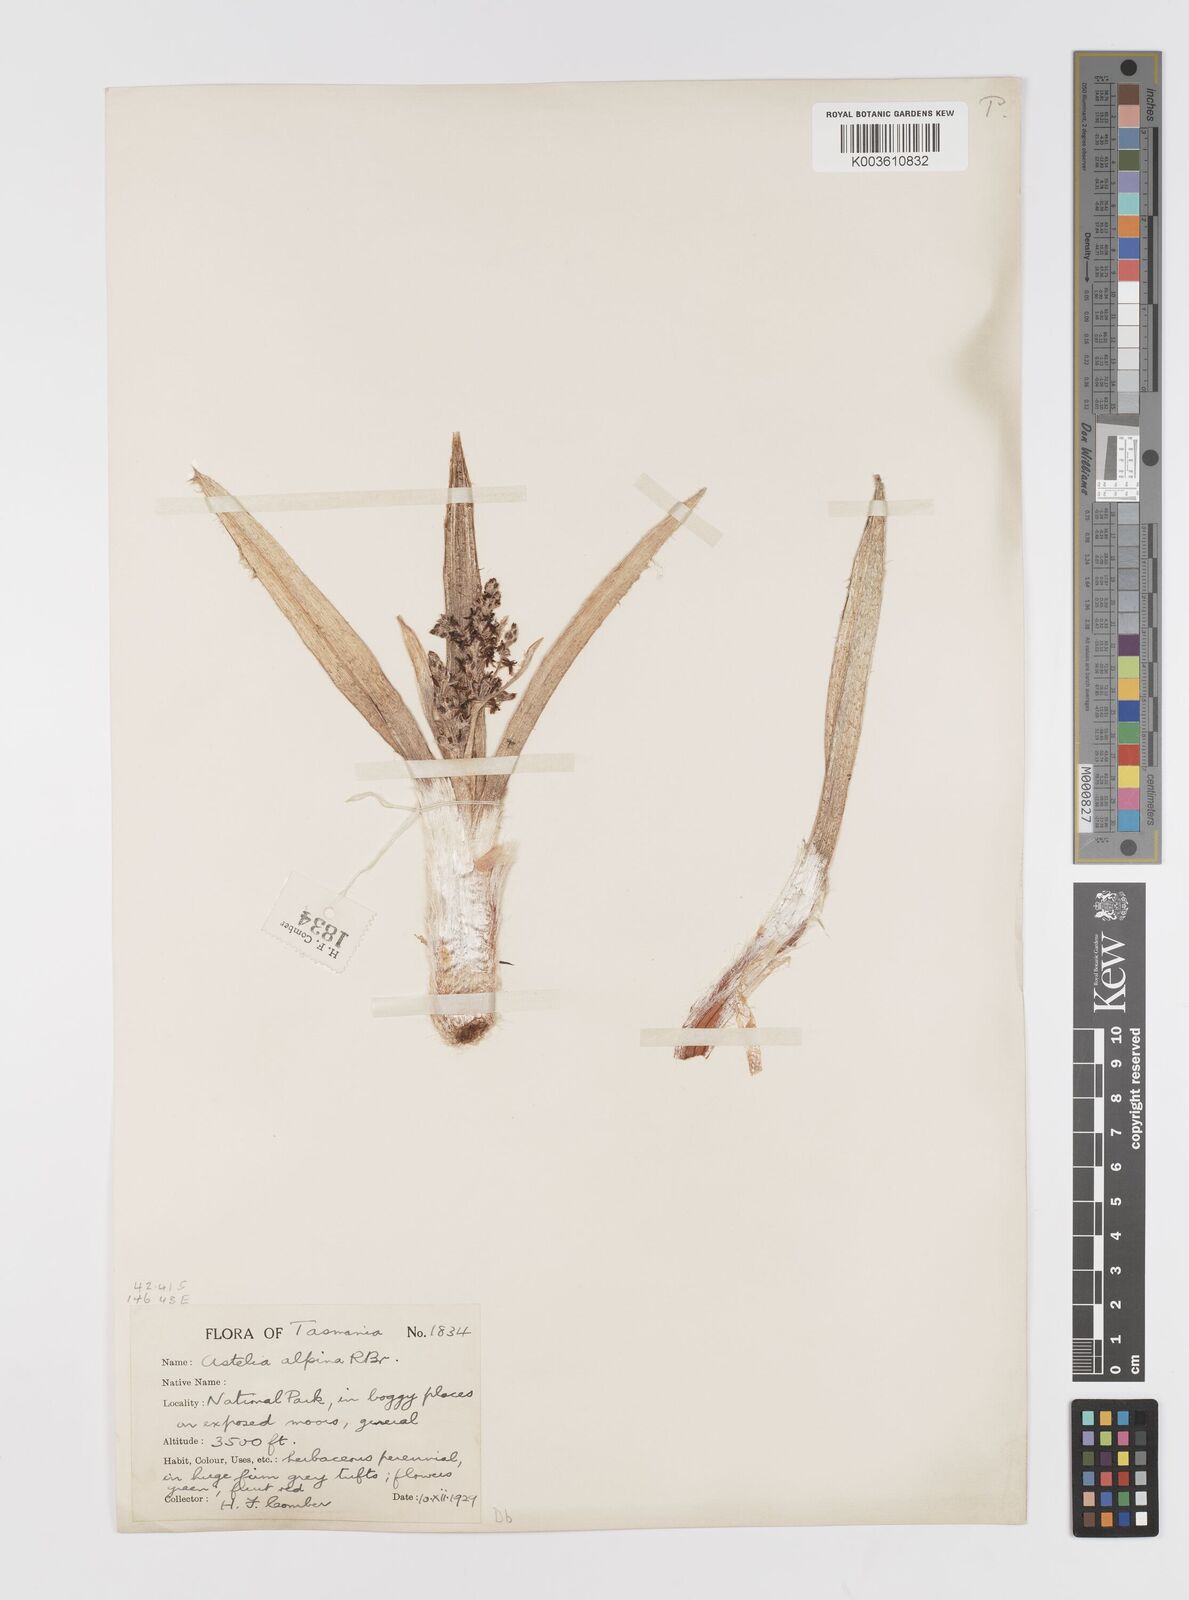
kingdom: Plantae
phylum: Tracheophyta
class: Liliopsida
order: Asparagales
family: Asteliaceae
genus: Astelia
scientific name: Astelia alpina
